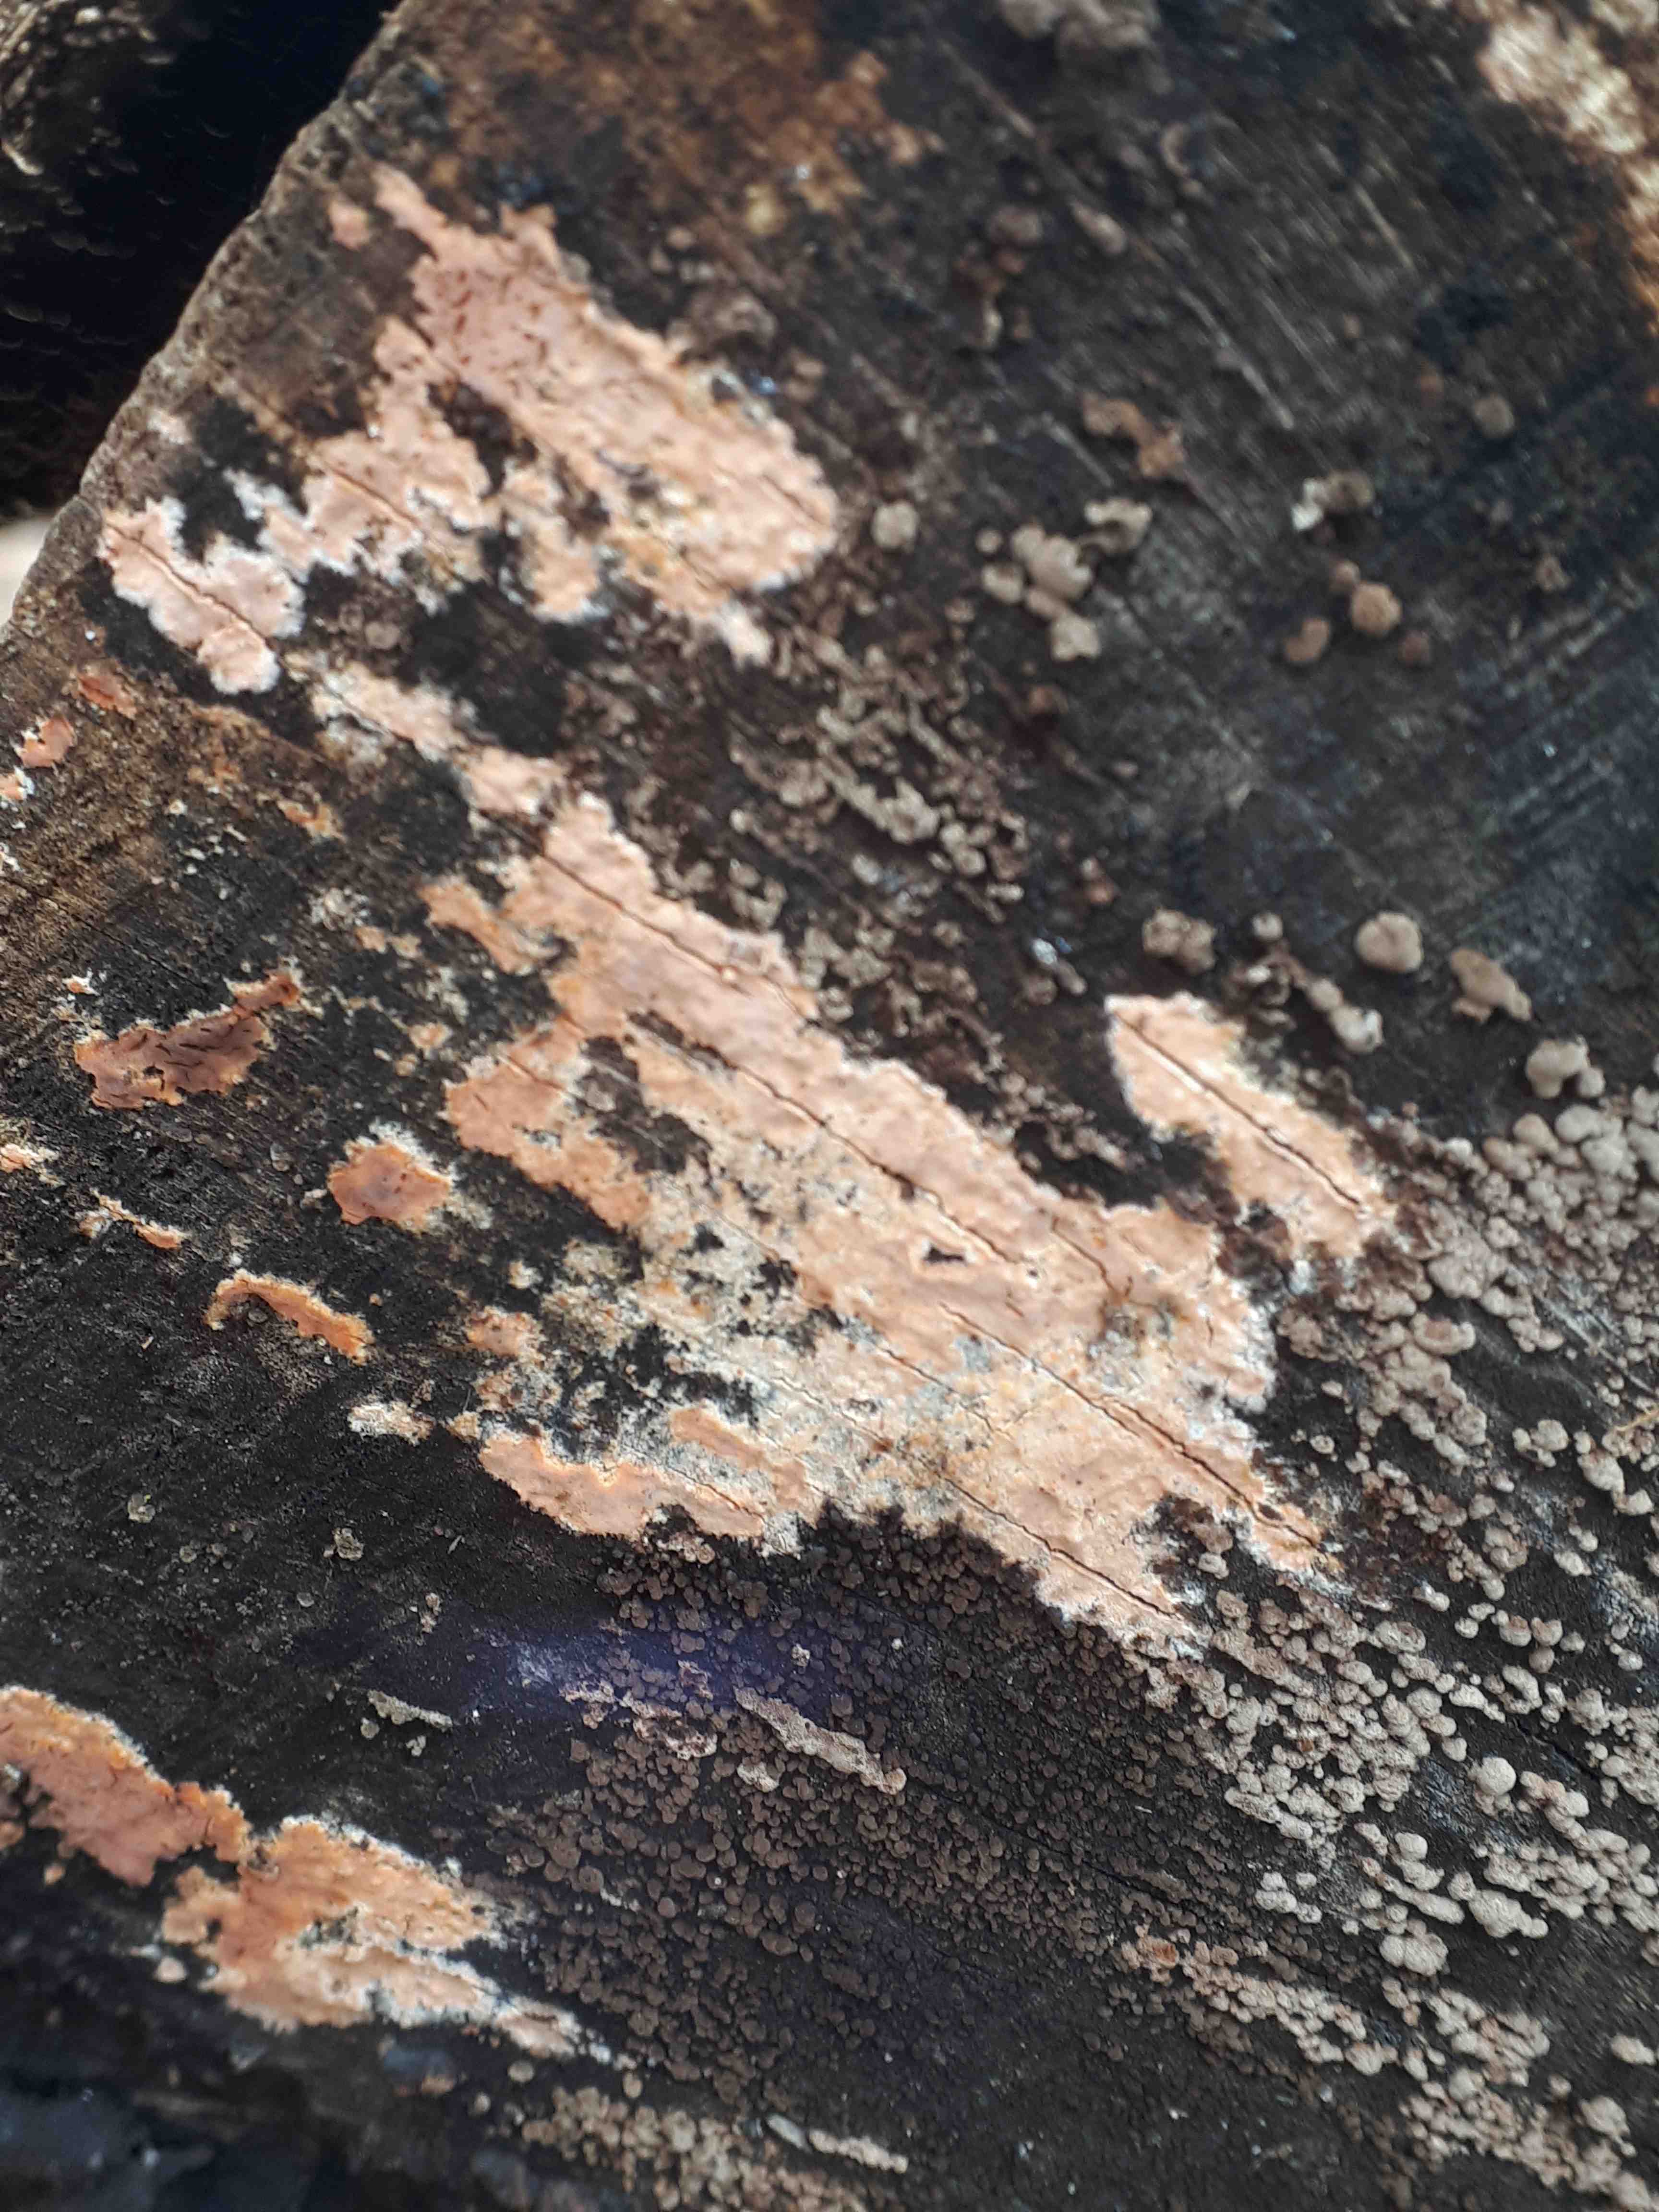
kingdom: Fungi
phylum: Basidiomycota
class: Agaricomycetes
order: Russulales
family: Peniophoraceae
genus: Peniophora
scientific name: Peniophora incarnata
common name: laksefarvet voksskind
